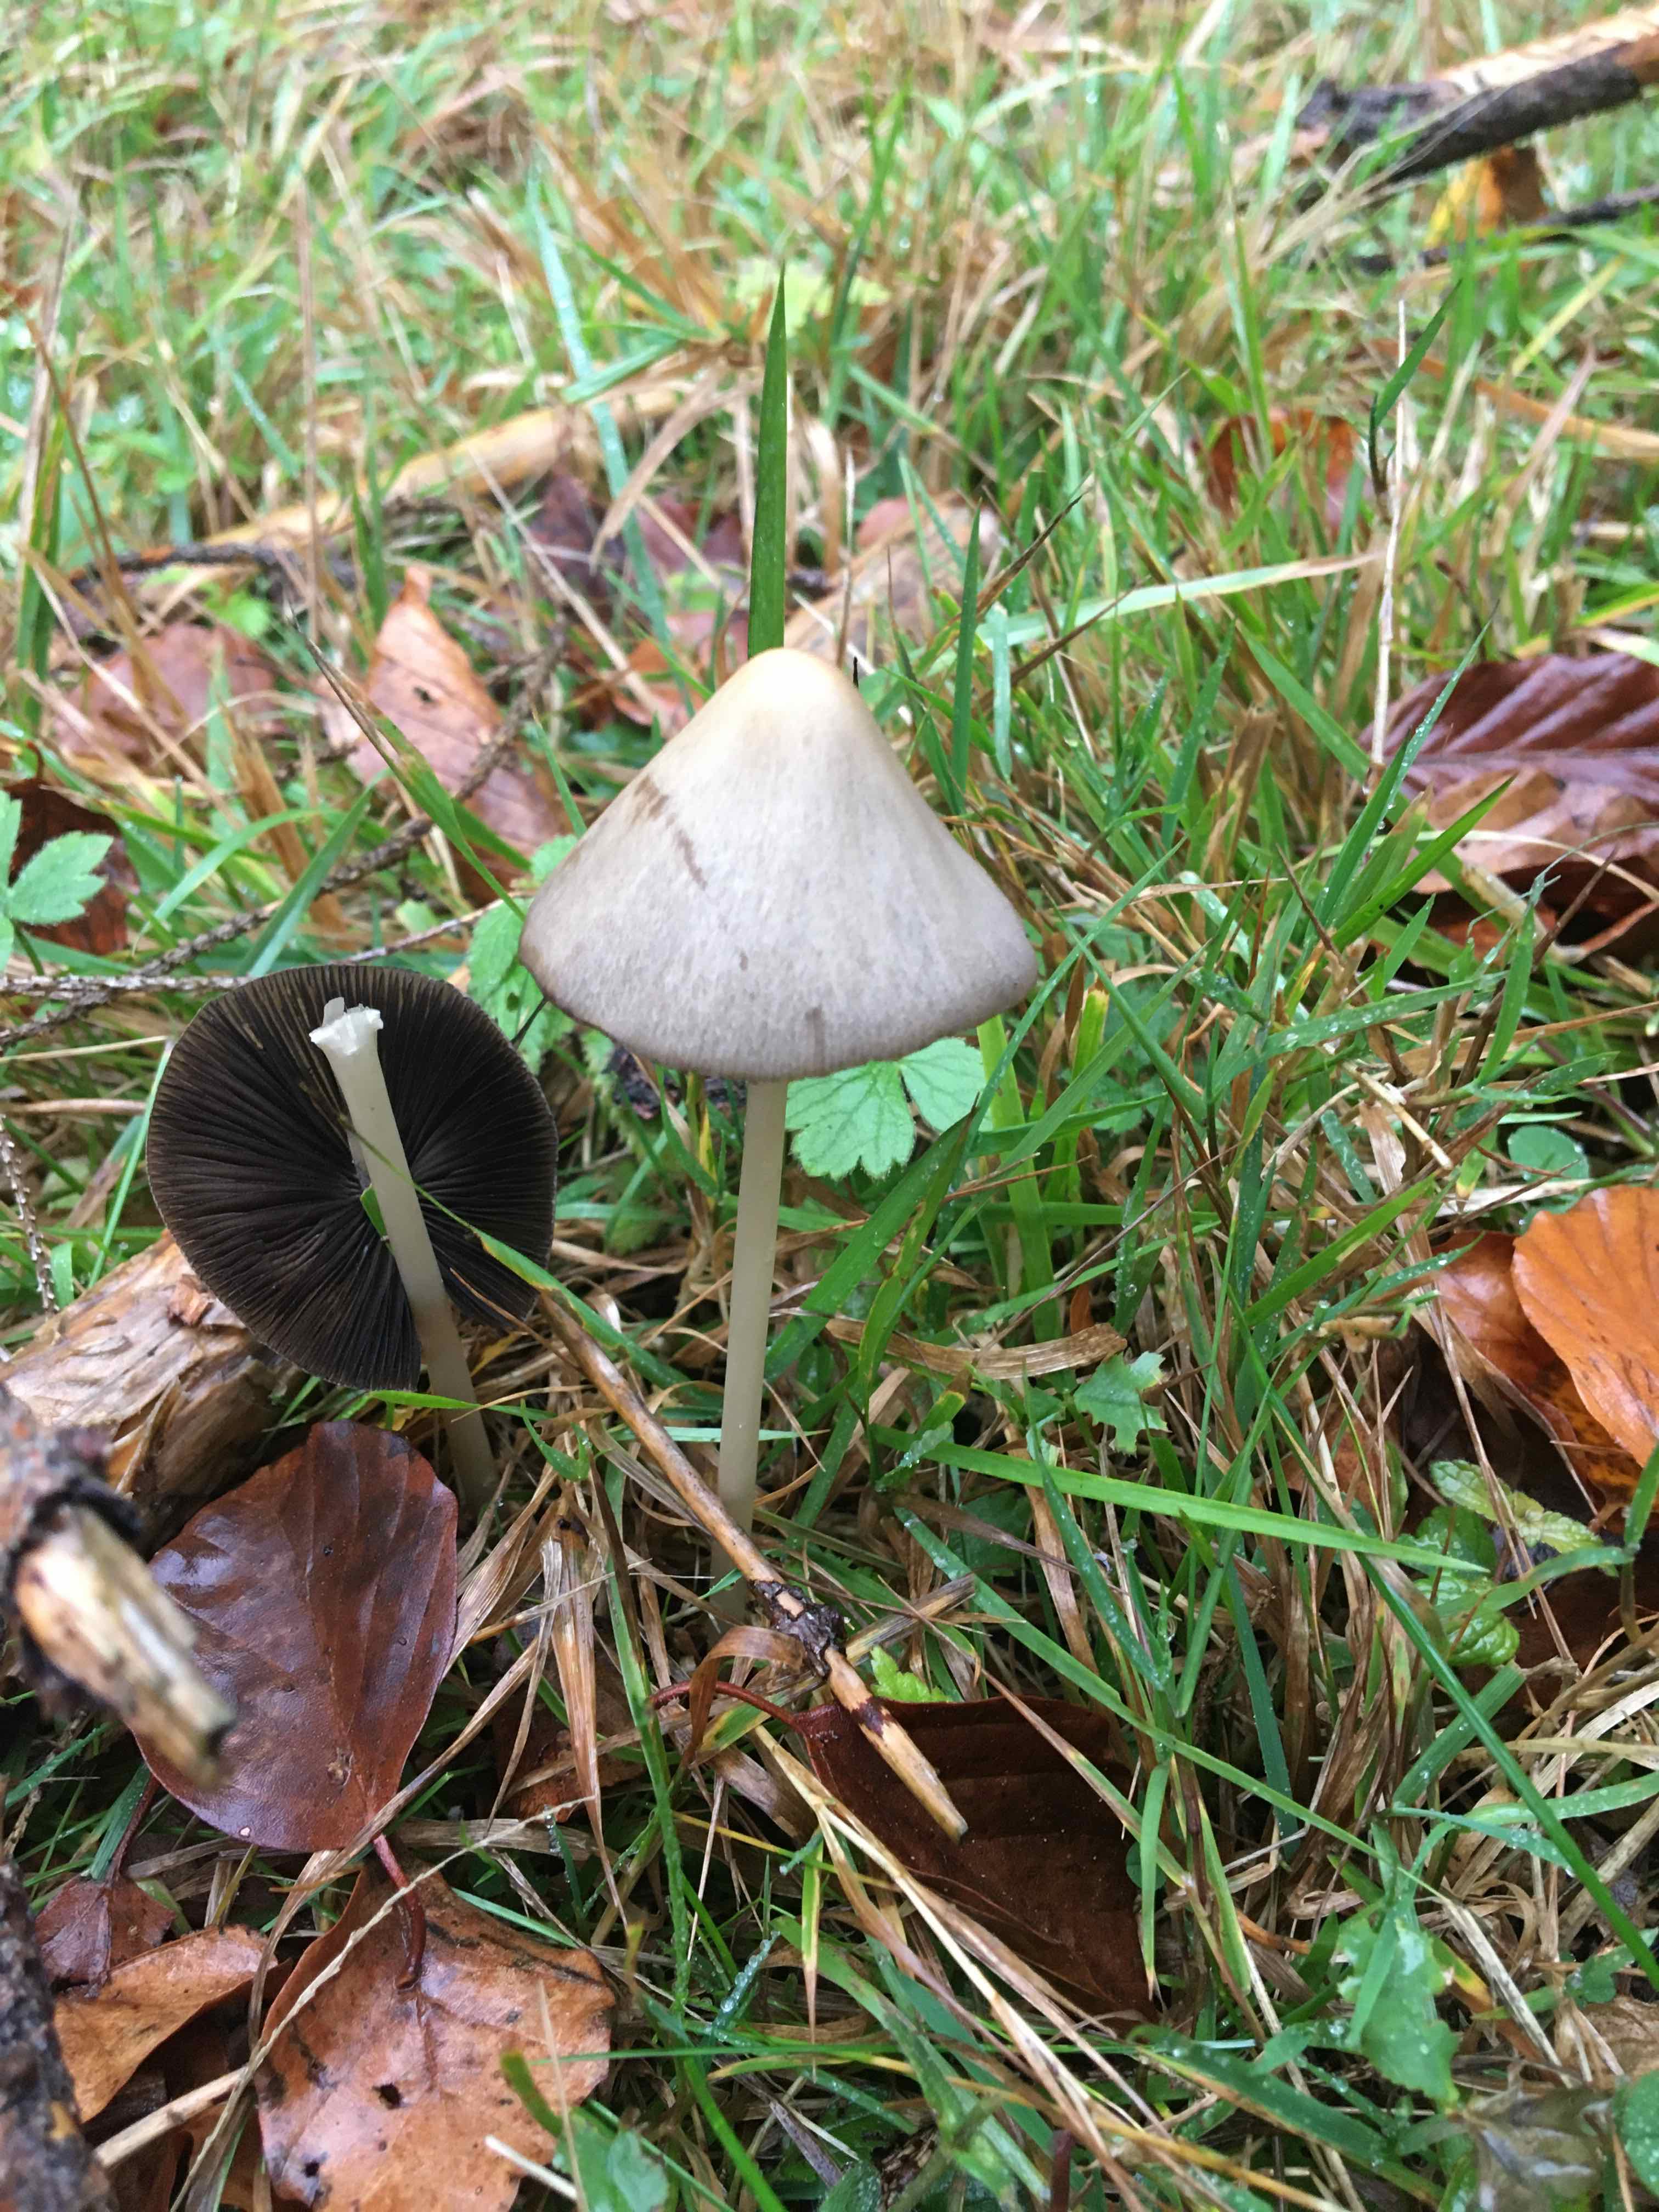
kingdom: Fungi
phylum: Basidiomycota
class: Agaricomycetes
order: Agaricales
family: Psathyrellaceae
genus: Parasola
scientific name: Parasola conopilea
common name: kegle-hjulhat
